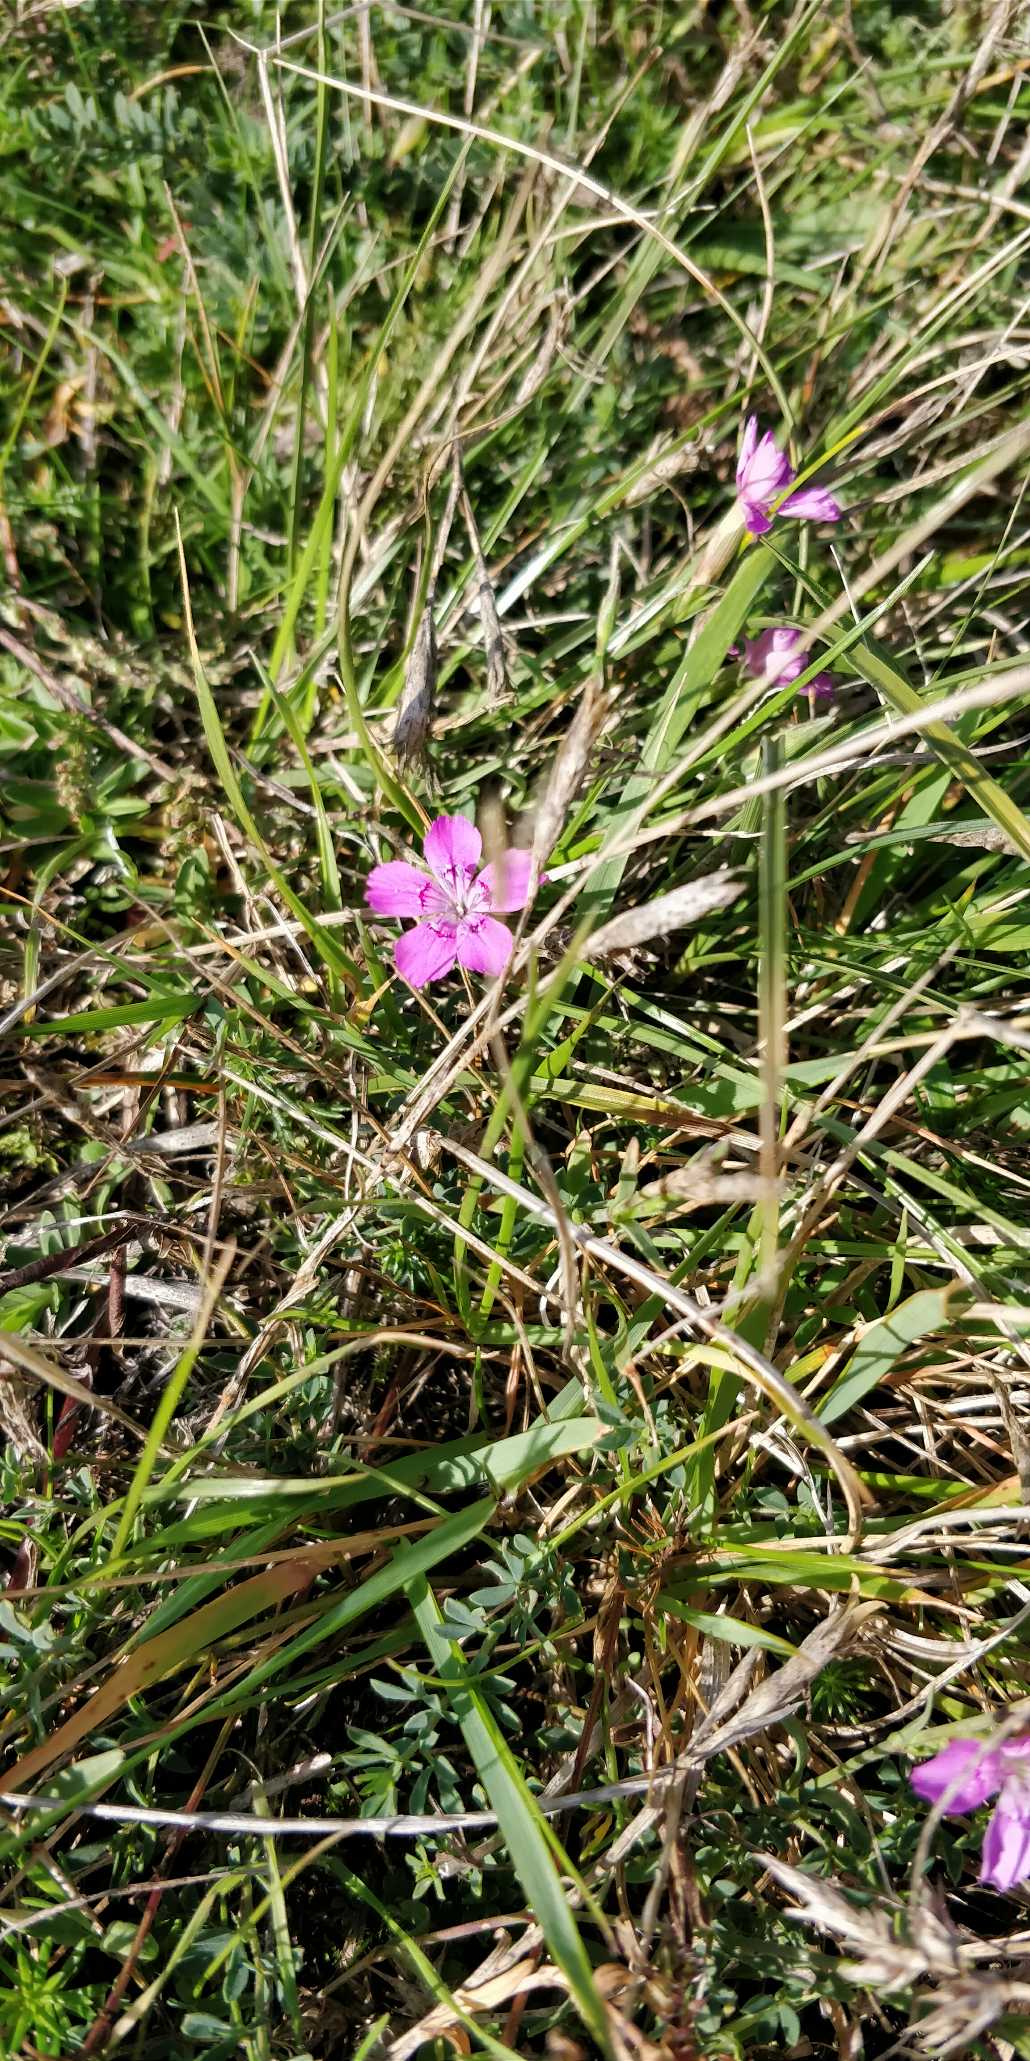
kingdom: Plantae
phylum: Tracheophyta
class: Magnoliopsida
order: Caryophyllales
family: Caryophyllaceae
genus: Dianthus
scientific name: Dianthus deltoides
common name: Bakke-nellike
